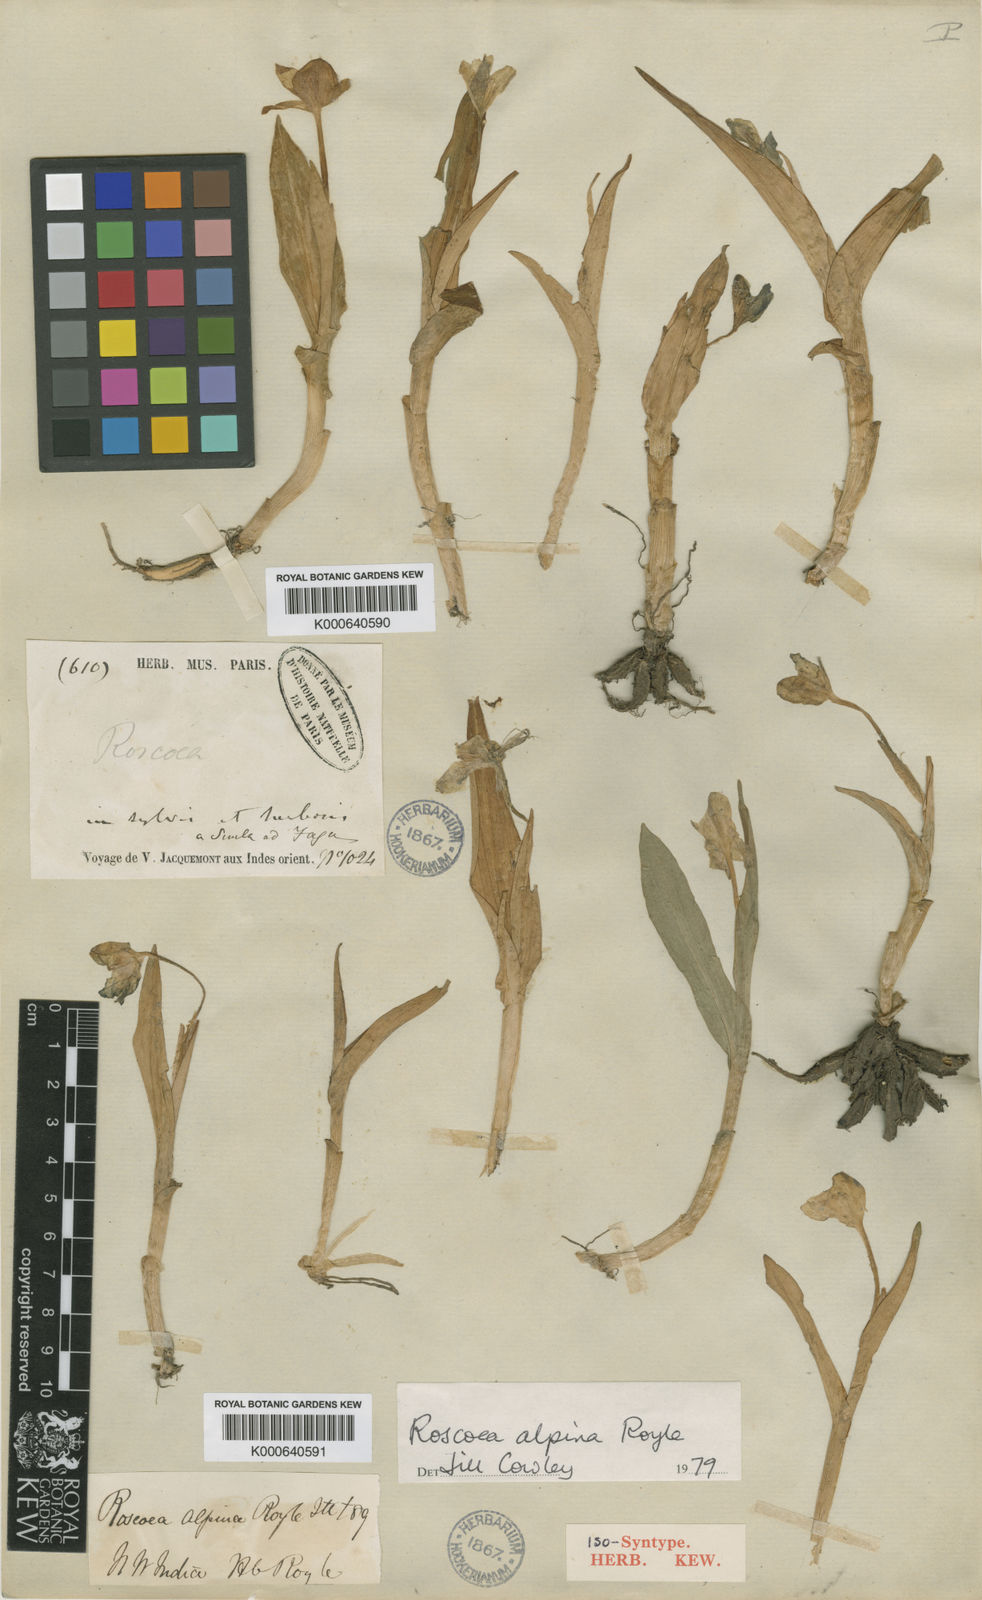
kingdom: Plantae
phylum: Tracheophyta
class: Liliopsida
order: Zingiberales
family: Zingiberaceae
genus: Roscoea
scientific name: Roscoea alpina
